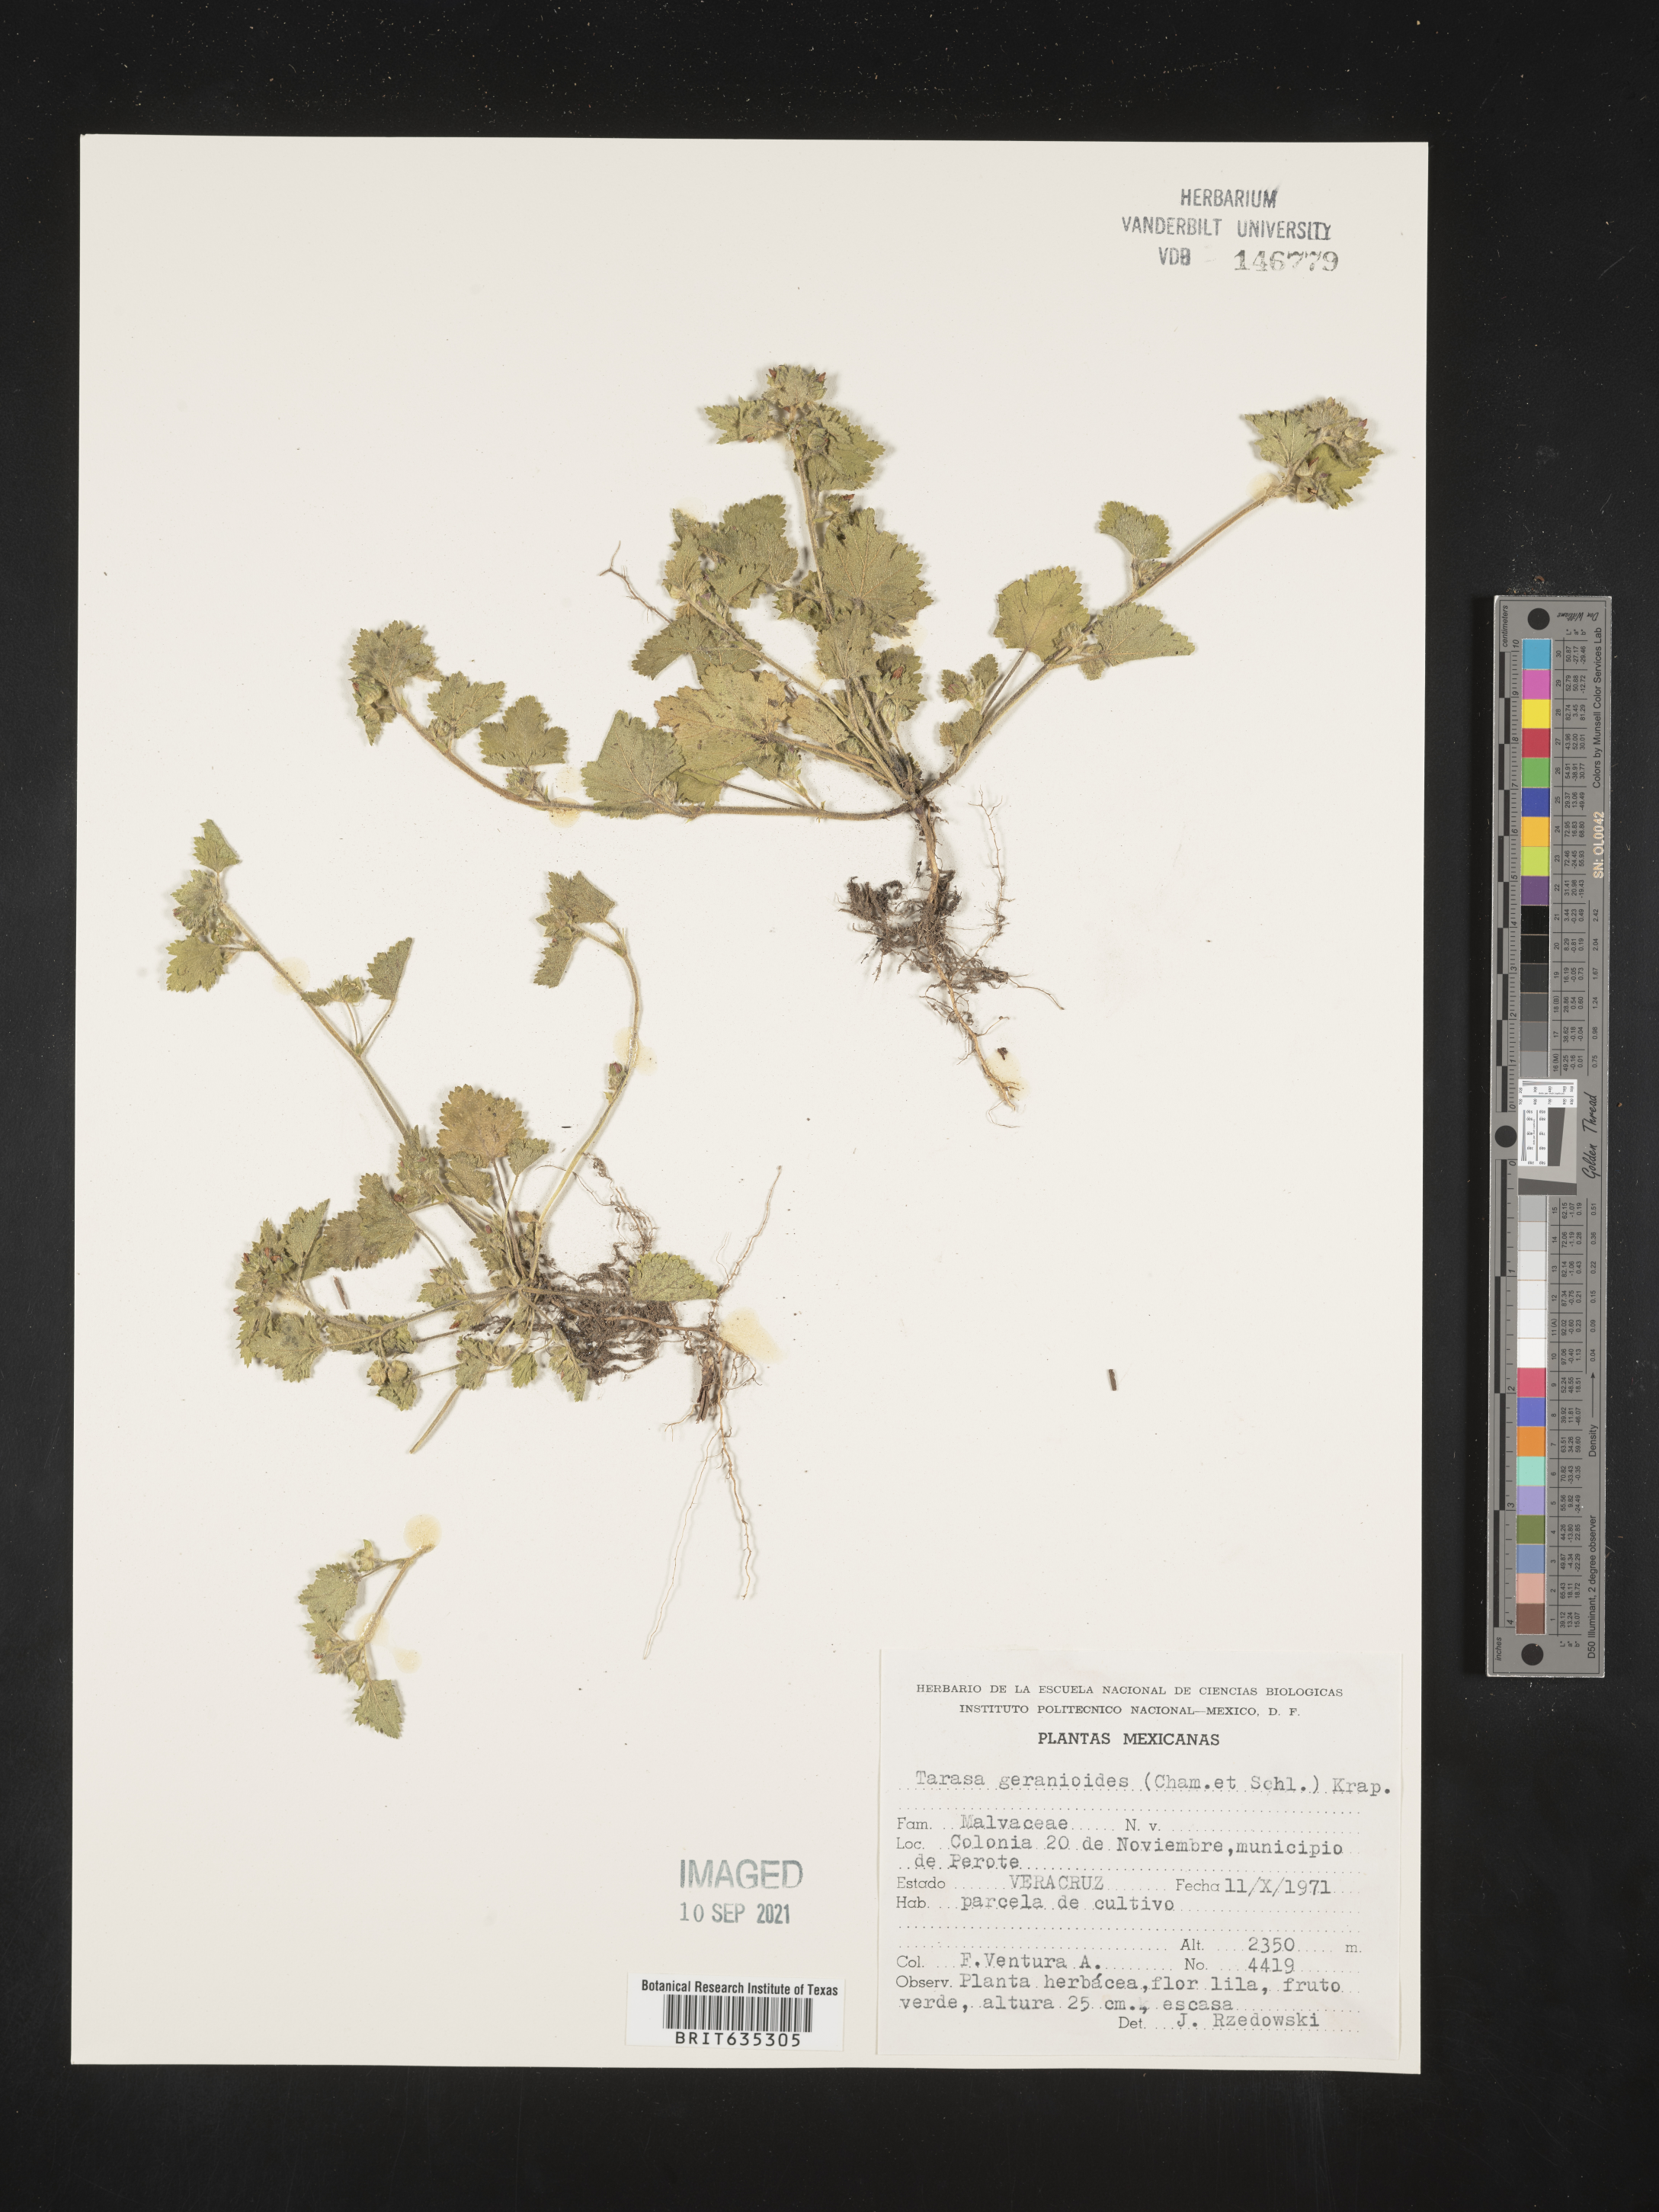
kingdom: Plantae
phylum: Tracheophyta
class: Magnoliopsida
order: Malvales
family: Malvaceae
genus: Tarasa
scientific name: Tarasa geranioides
